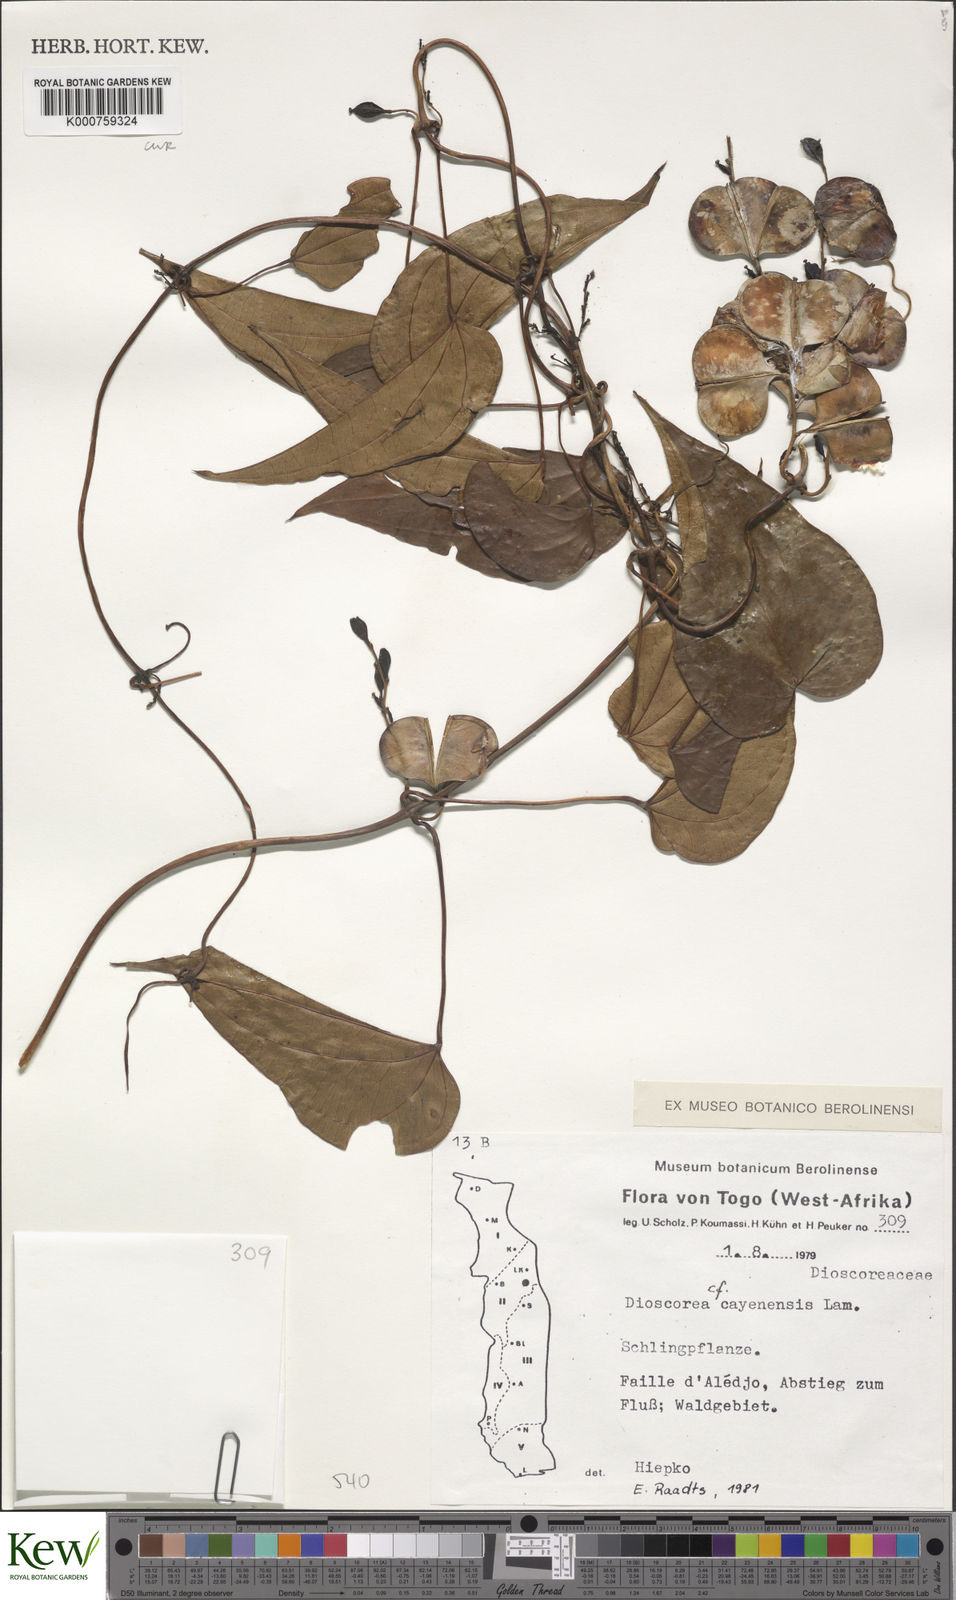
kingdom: Plantae
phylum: Tracheophyta
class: Liliopsida
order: Dioscoreales
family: Dioscoreaceae
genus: Dioscorea
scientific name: Dioscorea cayenensis
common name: Attoto yam
